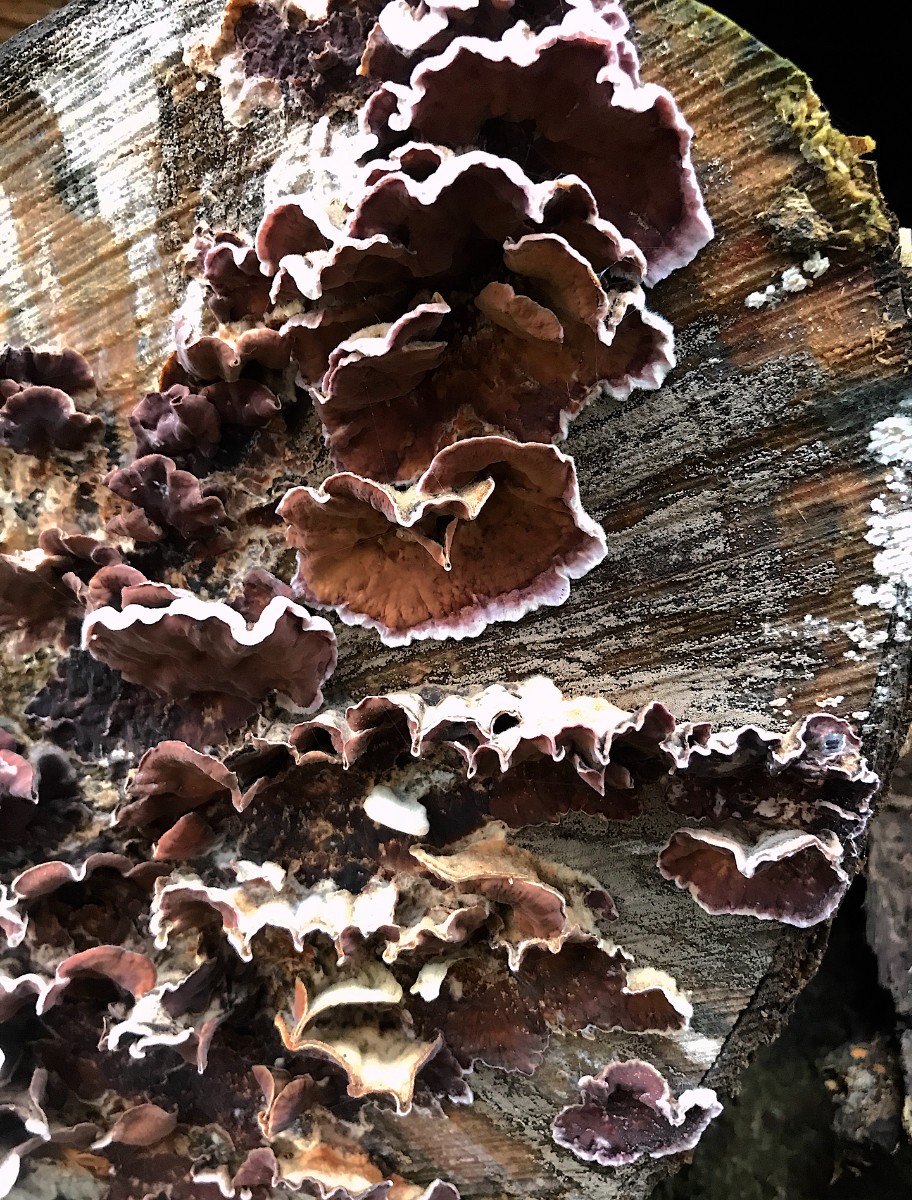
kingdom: Fungi
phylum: Basidiomycota
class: Agaricomycetes
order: Agaricales
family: Cyphellaceae
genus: Chondrostereum
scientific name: Chondrostereum purpureum
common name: purpurlædersvamp
